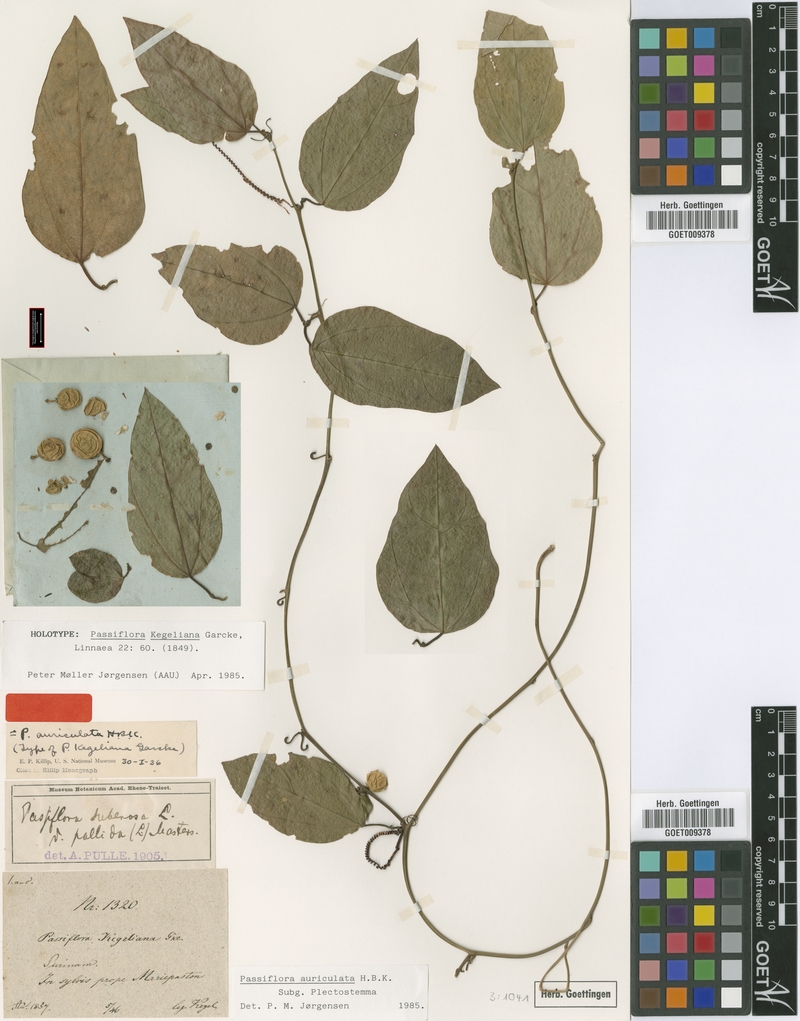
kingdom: Plantae
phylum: Tracheophyta
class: Magnoliopsida
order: Malpighiales
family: Passifloraceae
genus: Passiflora
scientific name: Passiflora auriculata
